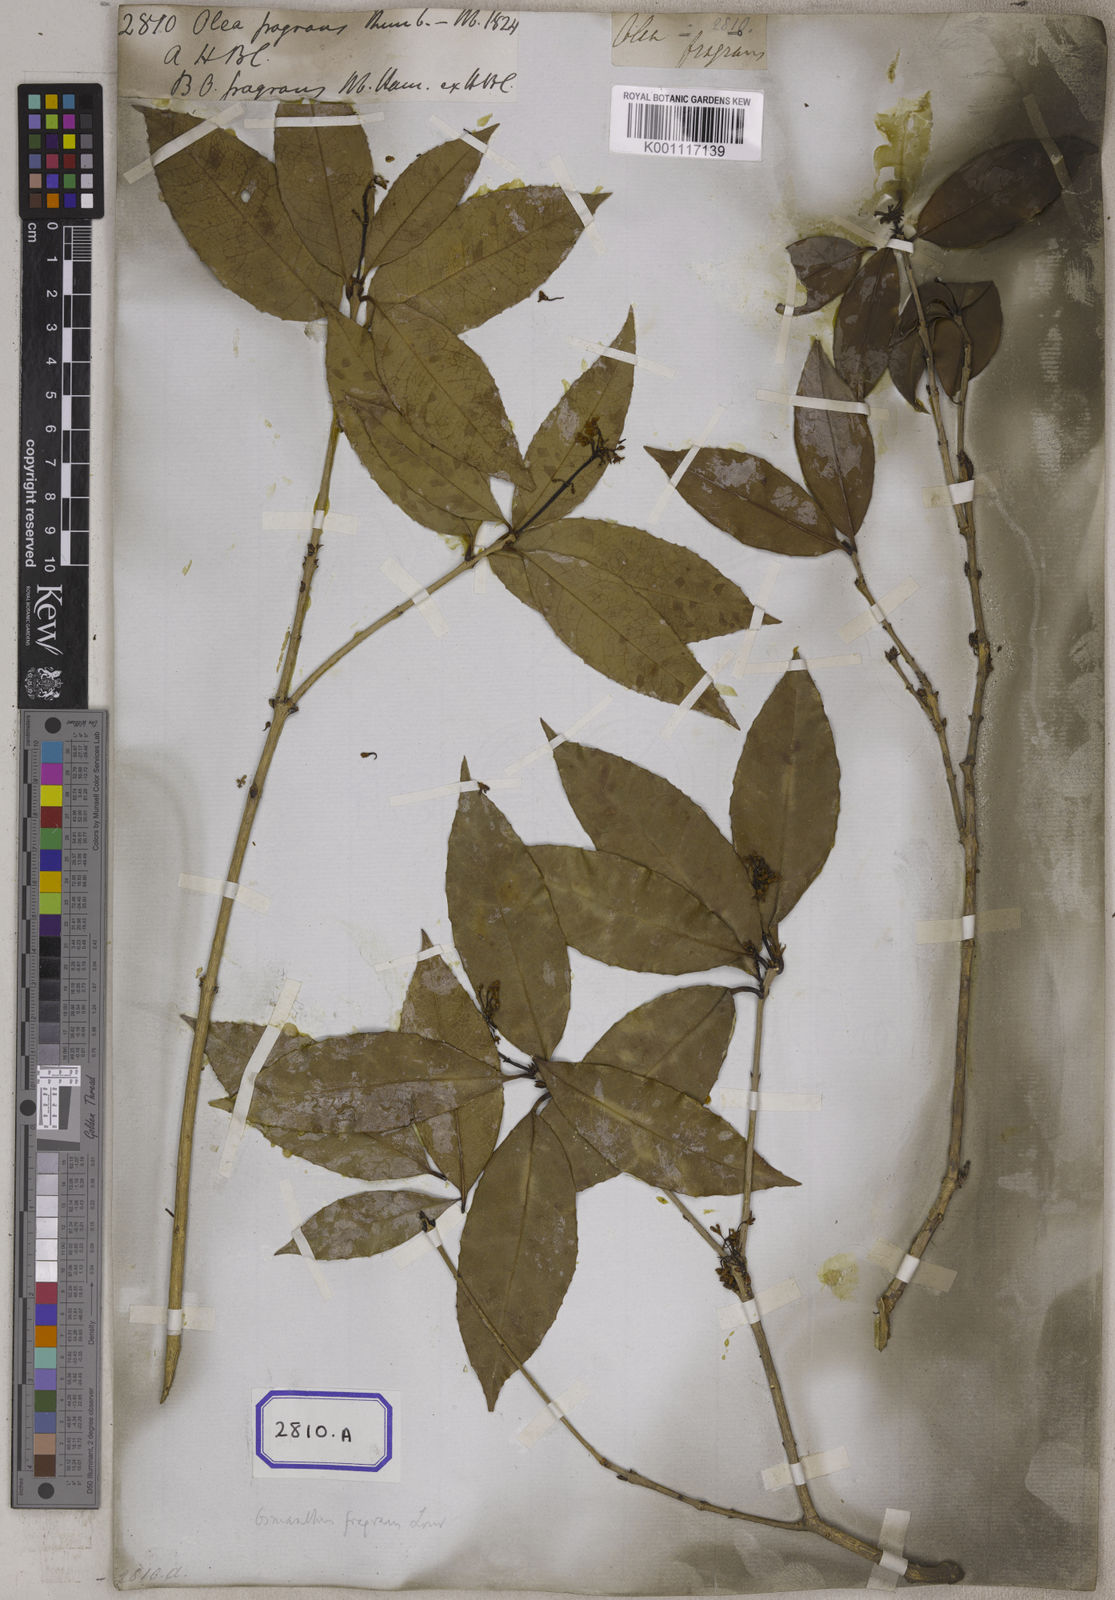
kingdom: Plantae
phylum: Tracheophyta
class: Magnoliopsida
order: Lamiales
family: Oleaceae
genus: Osmanthus
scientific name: Osmanthus fragrans
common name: Sweet osmanthus
